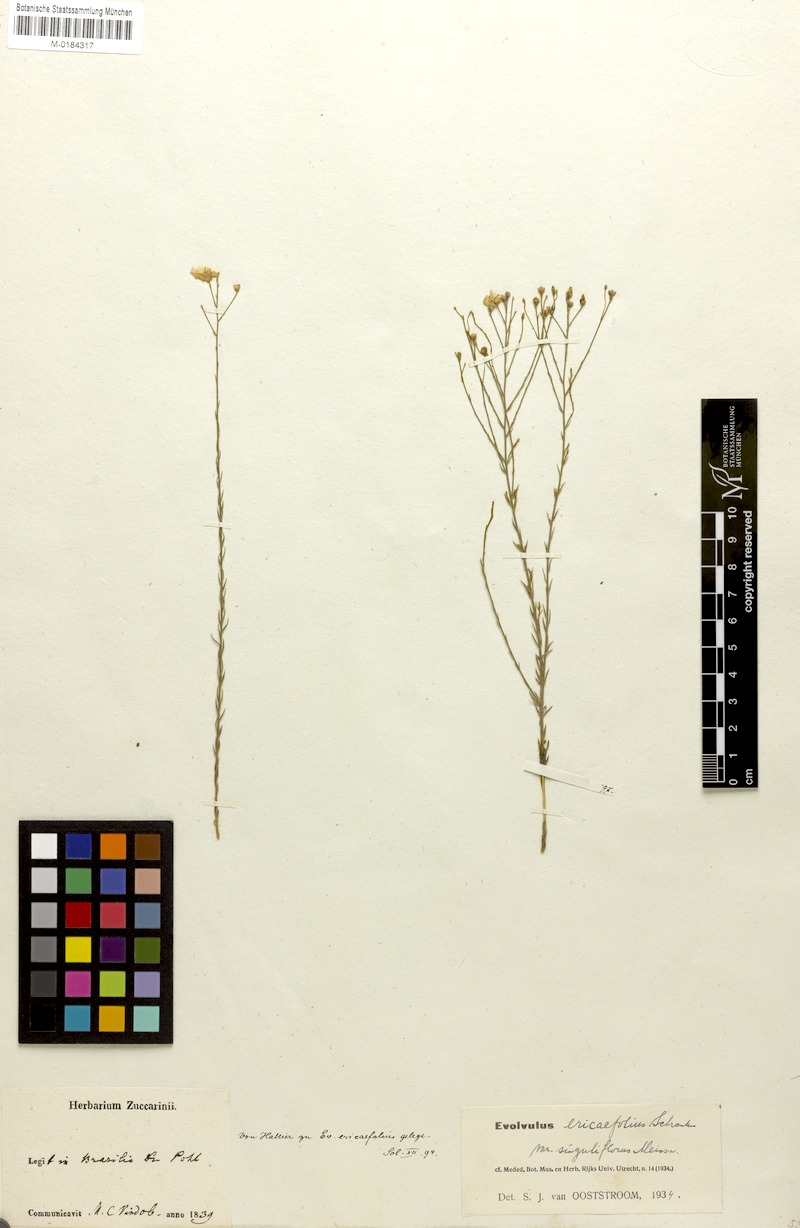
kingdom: Plantae
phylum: Tracheophyta
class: Magnoliopsida
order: Solanales
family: Convolvulaceae
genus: Evolvulus
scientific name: Evolvulus ericifolius
